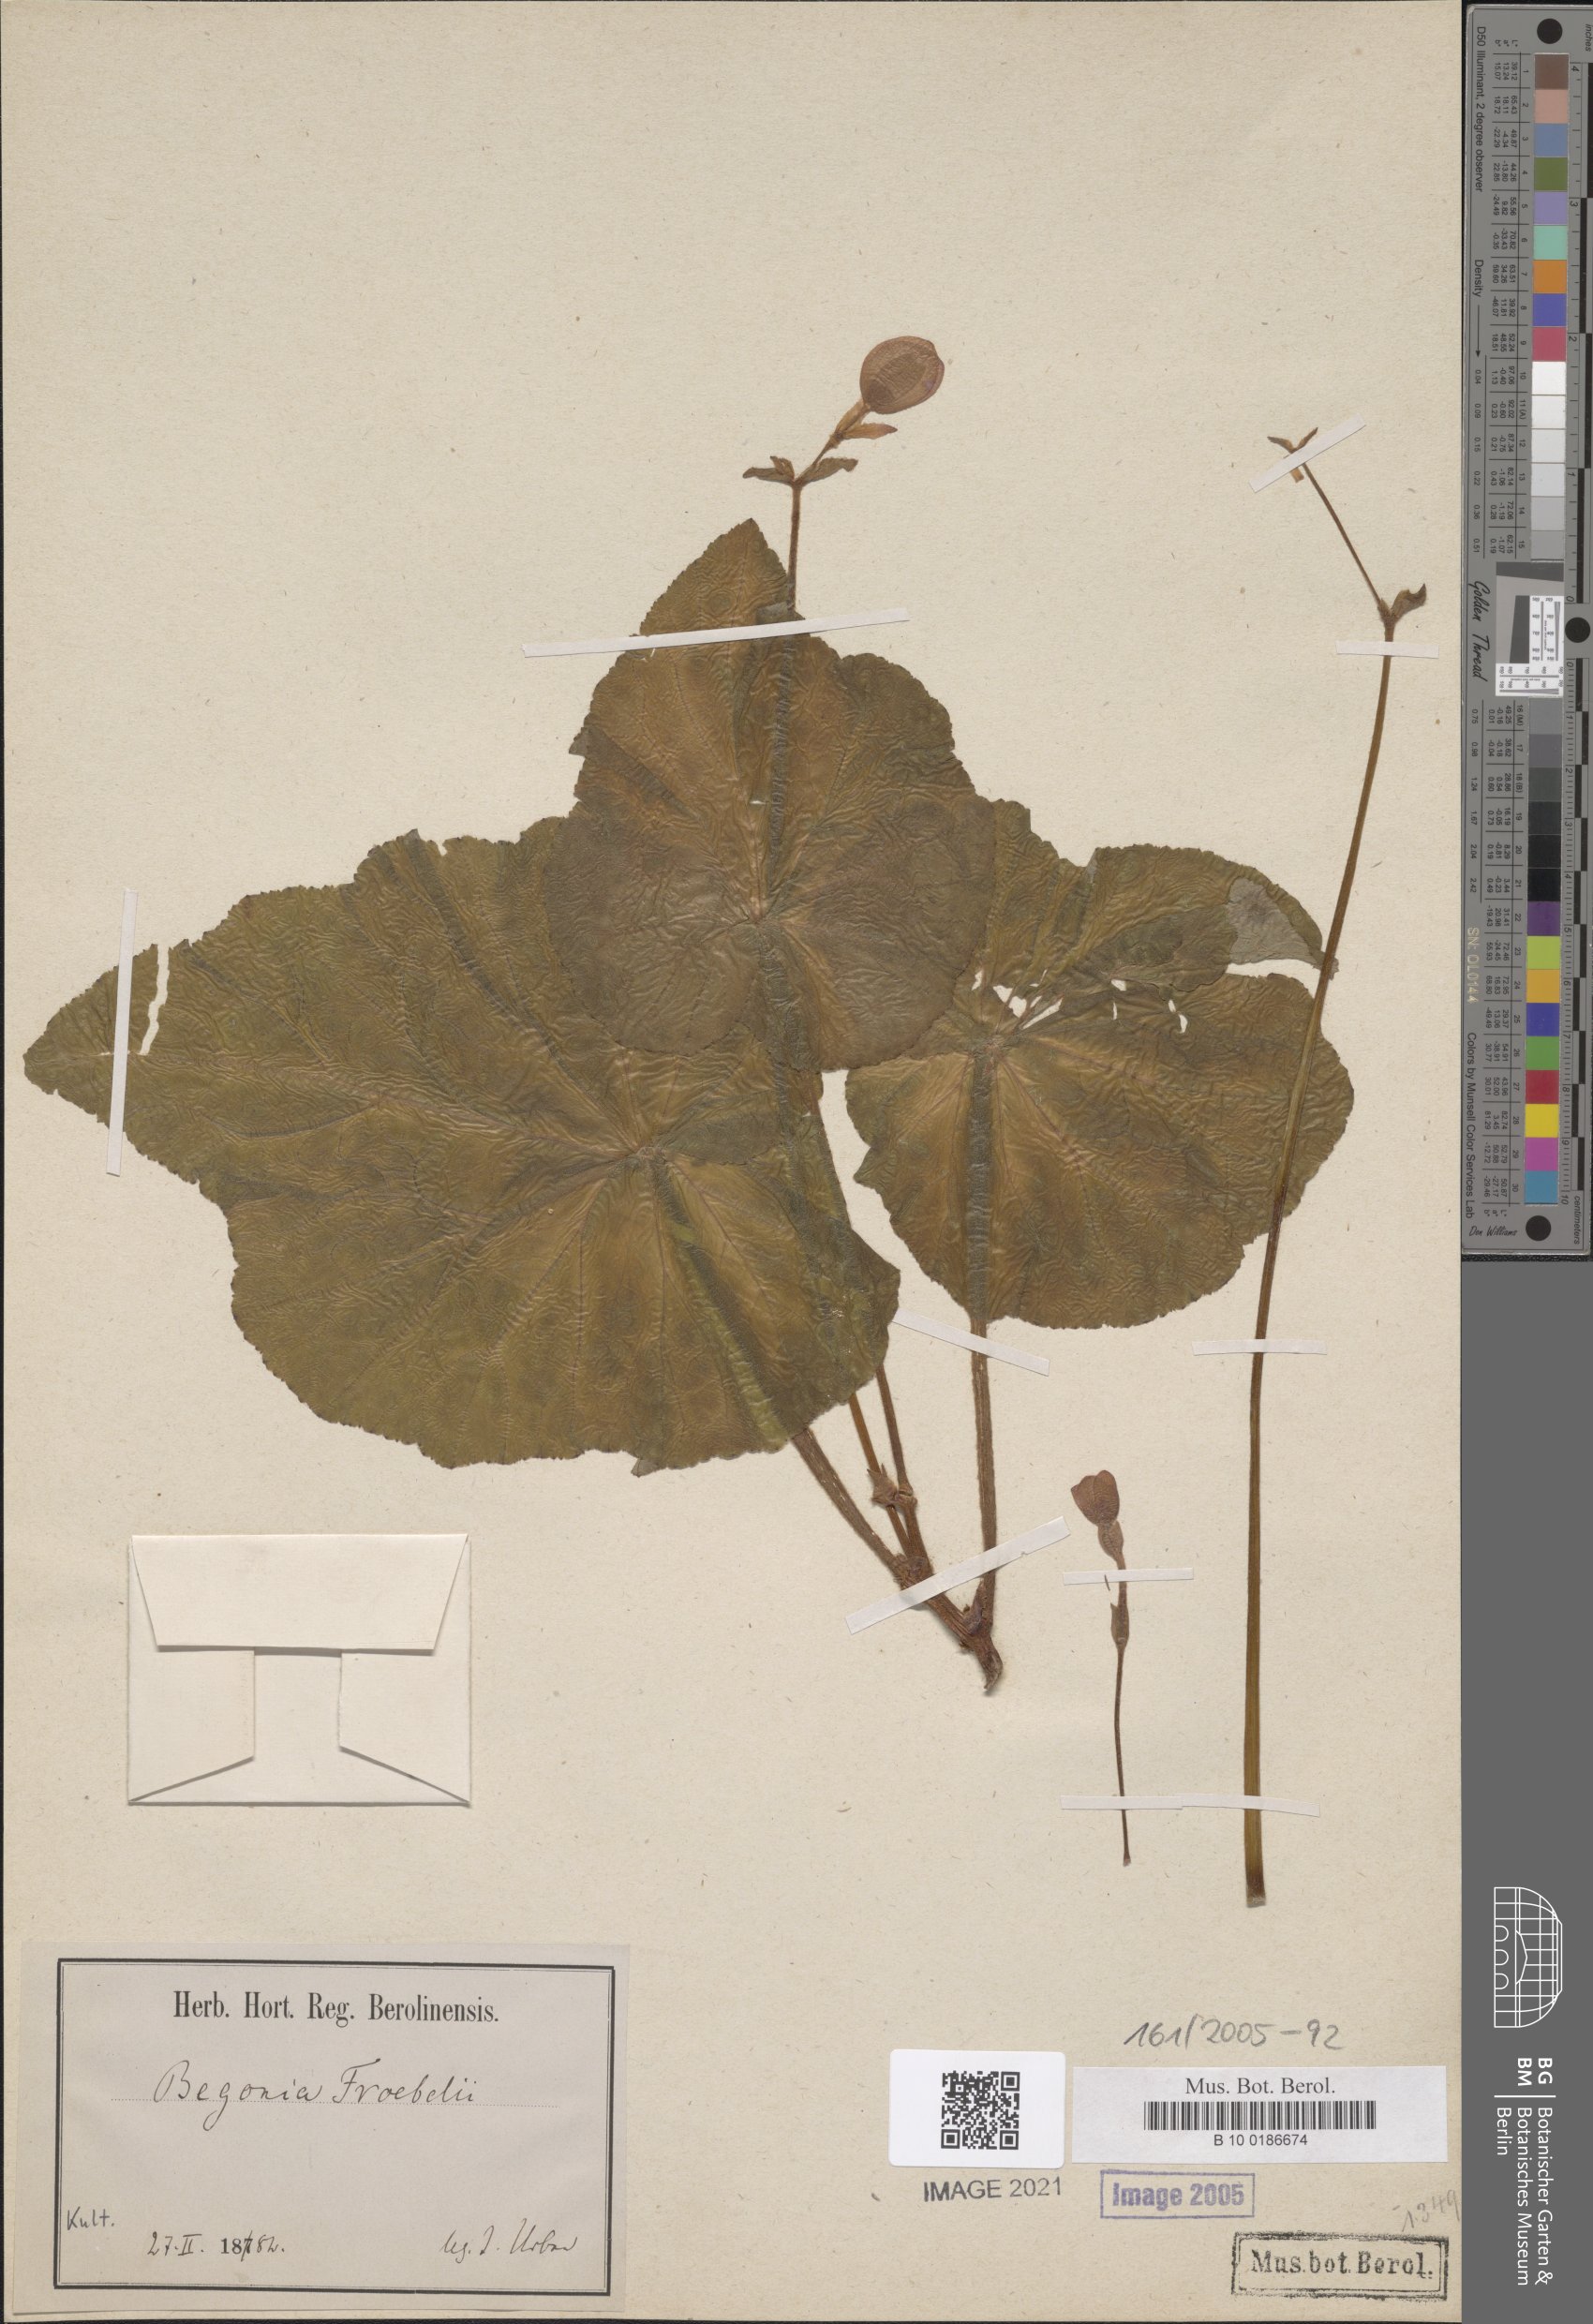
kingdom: Plantae
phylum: Tracheophyta
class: Magnoliopsida
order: Cucurbitales
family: Begoniaceae
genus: Begonia
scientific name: Begonia froebelii
